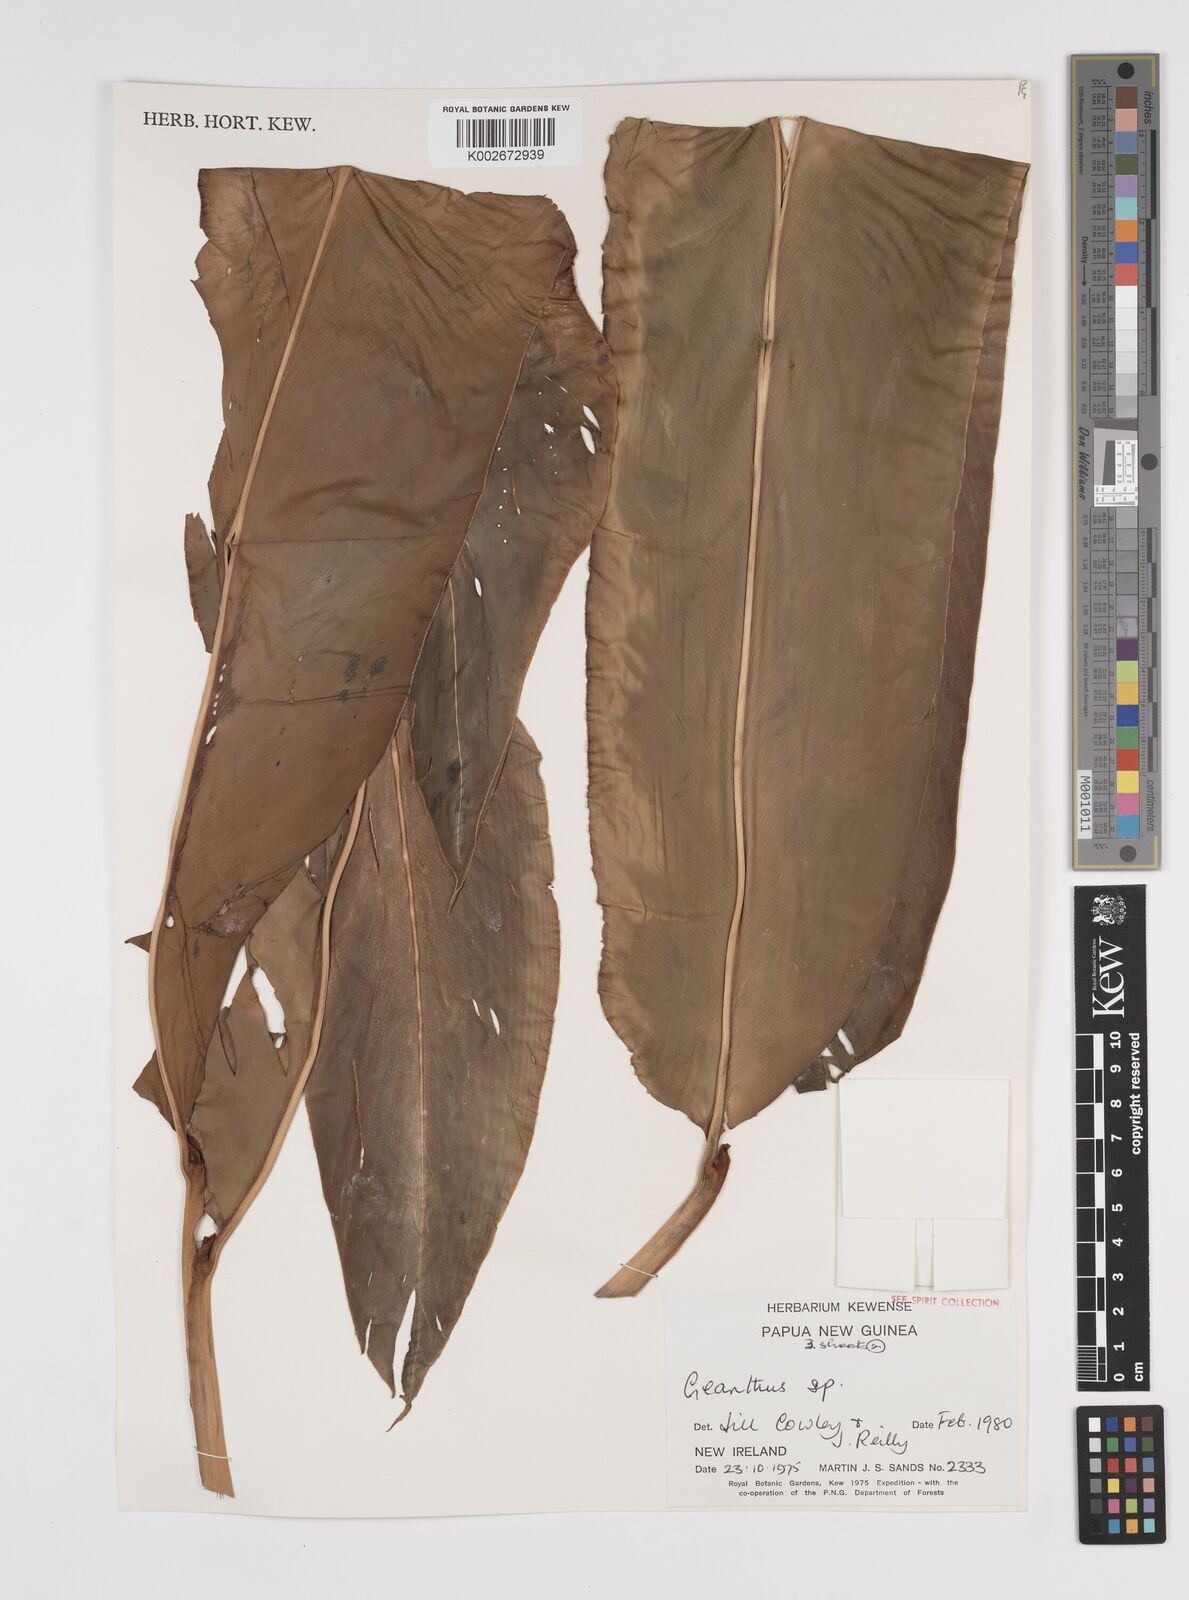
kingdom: Plantae
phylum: Tracheophyta
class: Liliopsida
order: Zingiberales
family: Zingiberaceae
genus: Etlingera
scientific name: Etlingera
